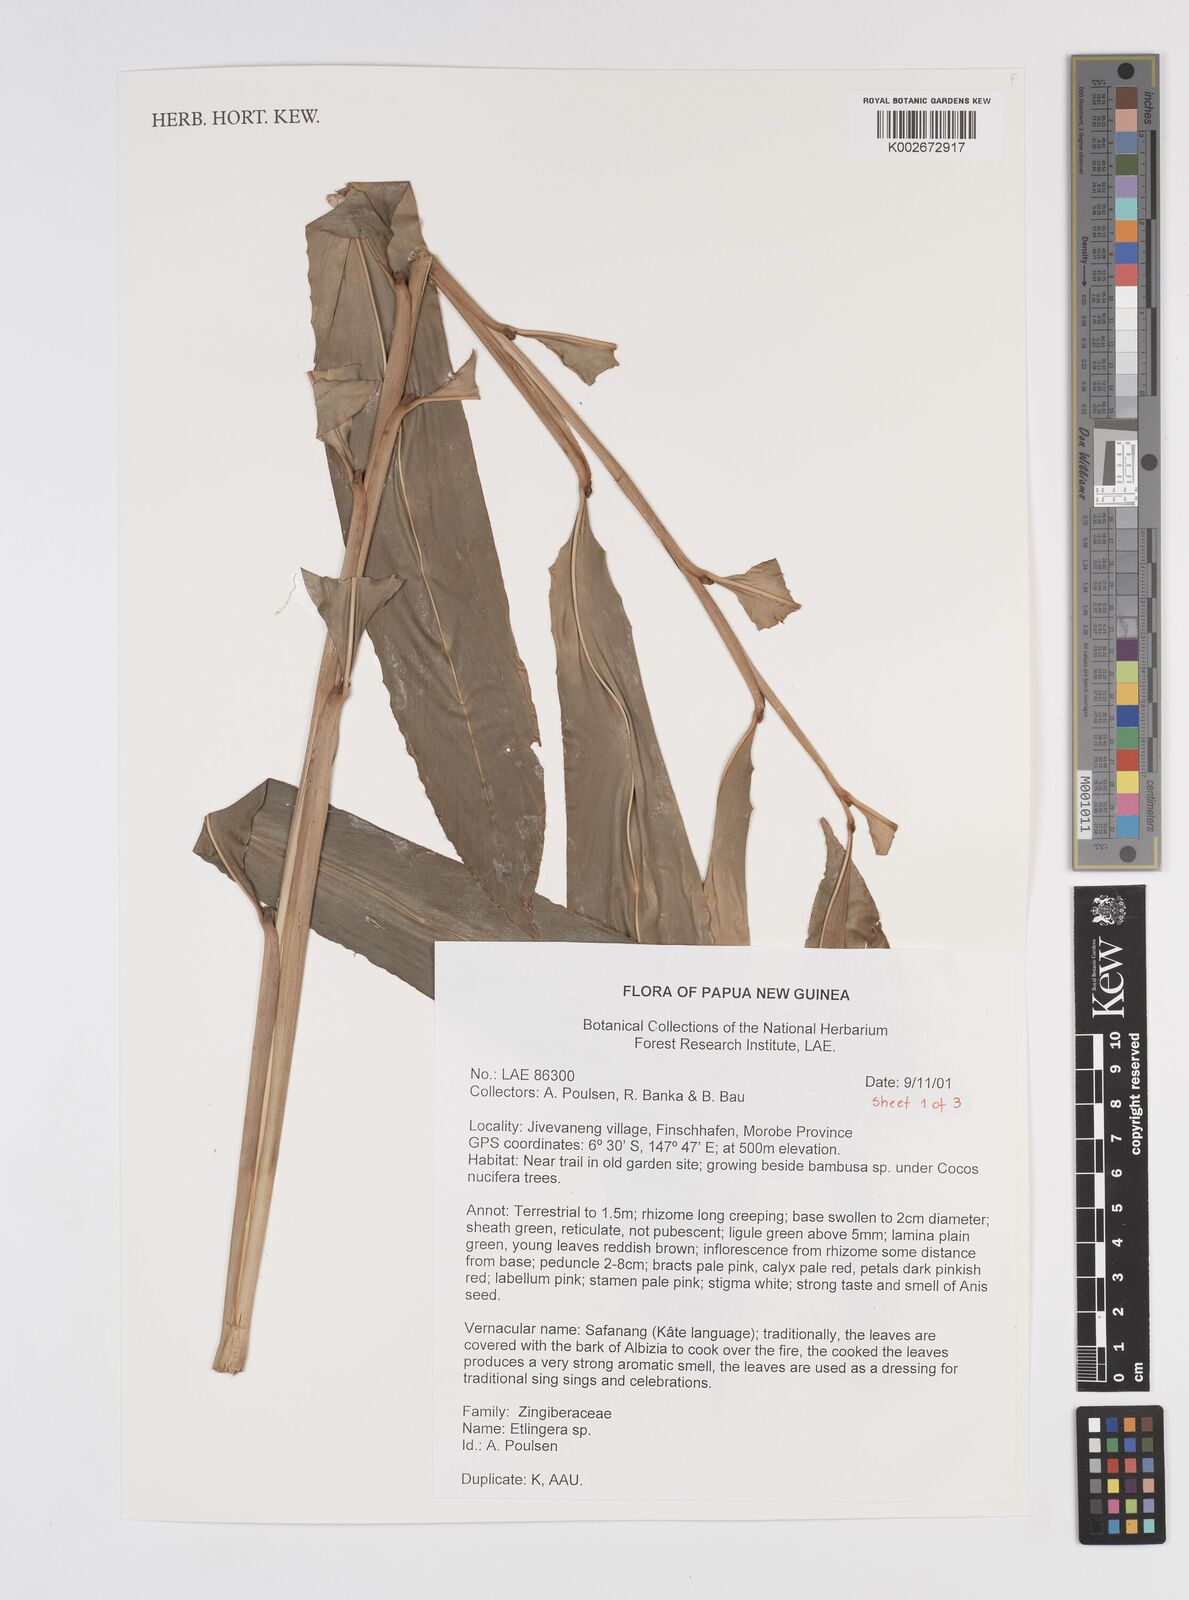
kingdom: Plantae
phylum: Tracheophyta
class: Liliopsida
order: Zingiberales
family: Zingiberaceae
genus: Etlingera
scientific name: Etlingera
